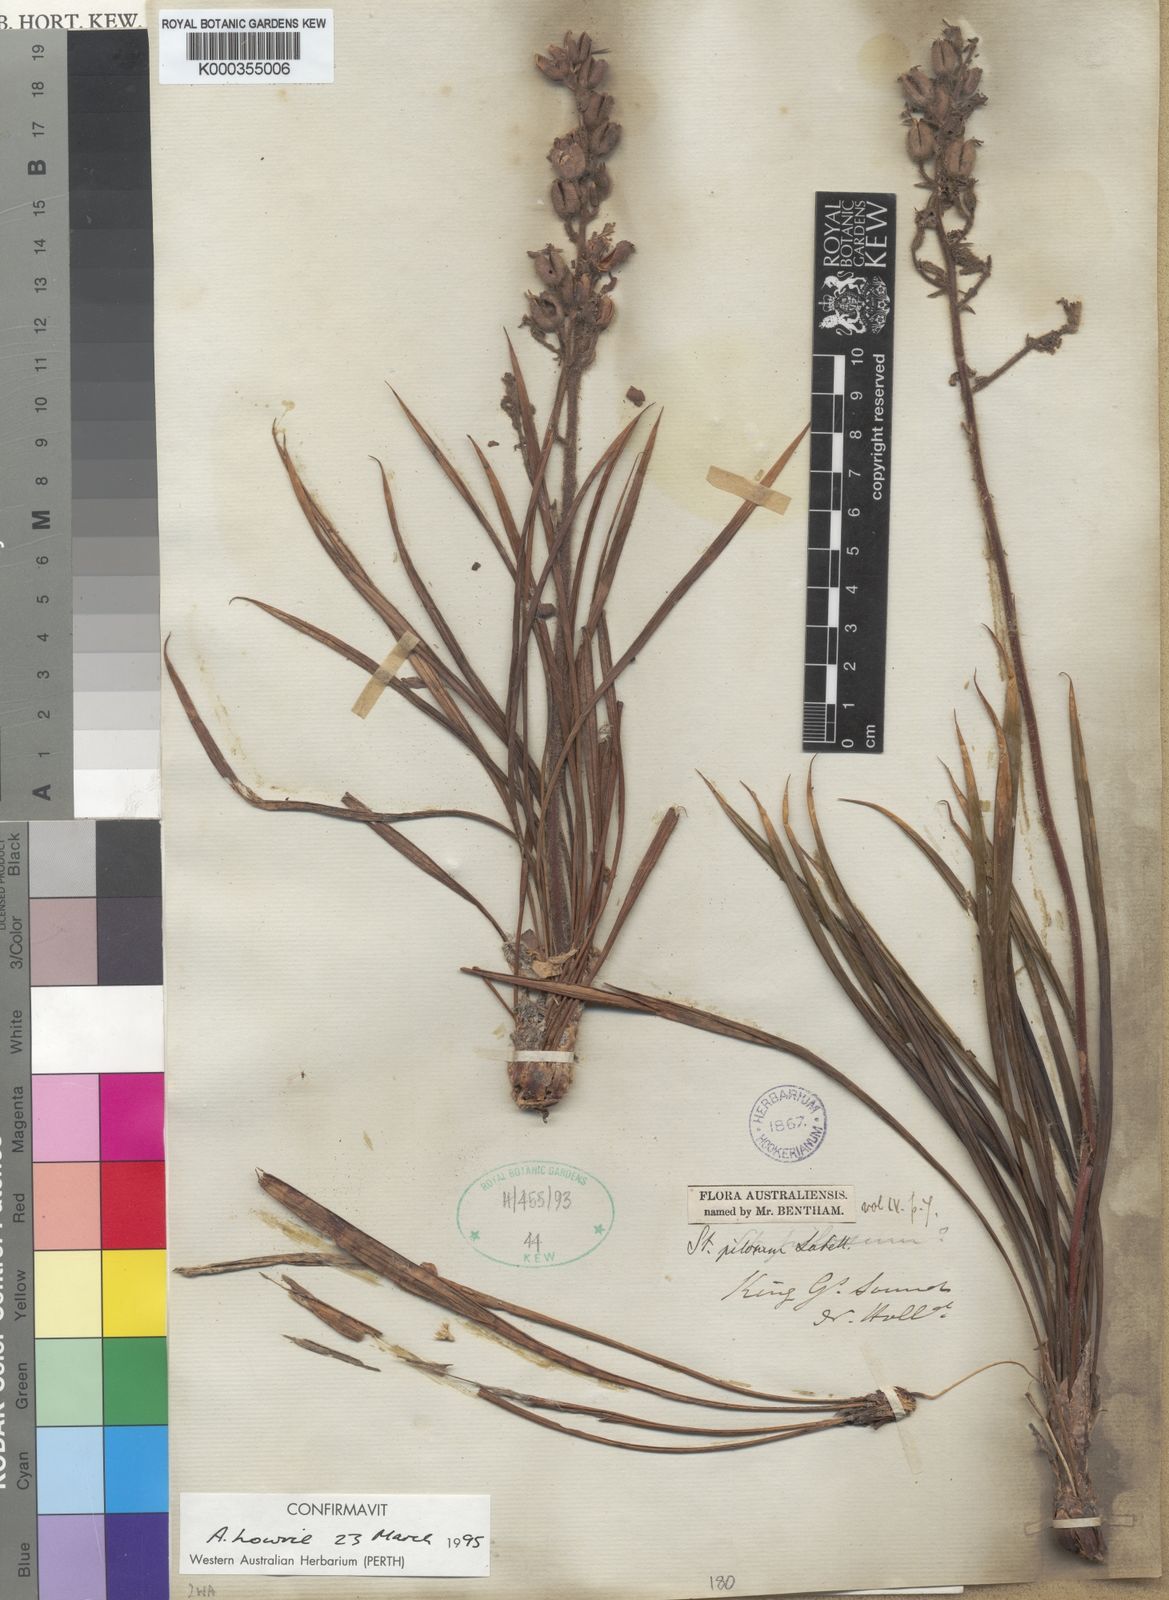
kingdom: Plantae
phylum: Tracheophyta
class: Magnoliopsida
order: Asterales
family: Stylidiaceae
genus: Stylidium
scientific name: Stylidium pilosum
